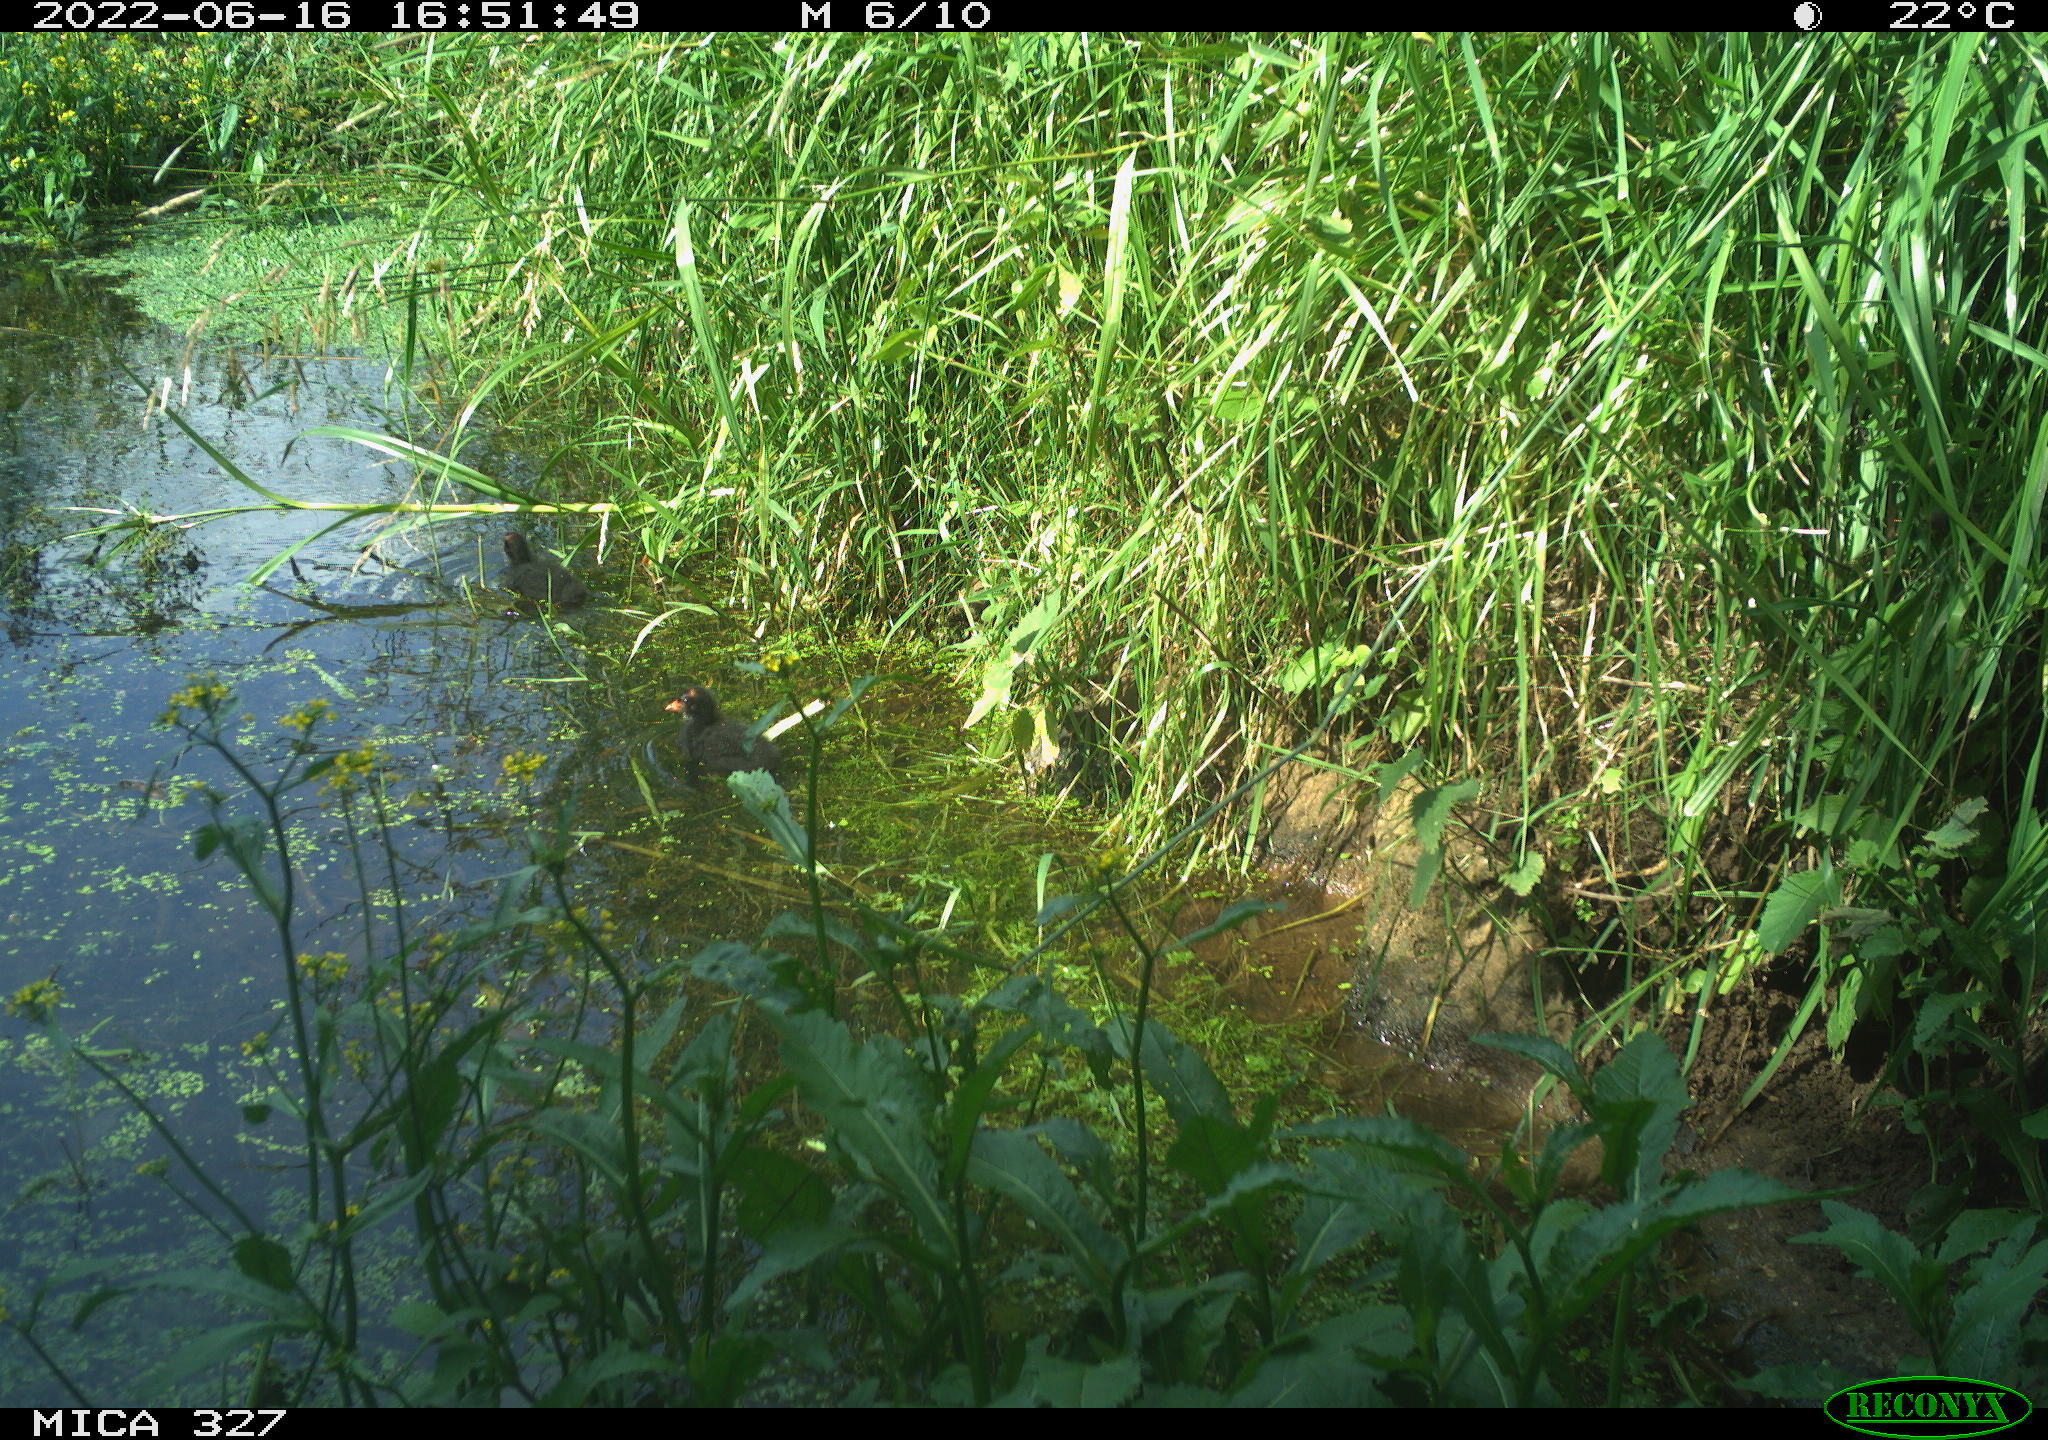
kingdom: Animalia
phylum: Chordata
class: Aves
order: Gruiformes
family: Rallidae
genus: Gallinula
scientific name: Gallinula chloropus
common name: Common moorhen
